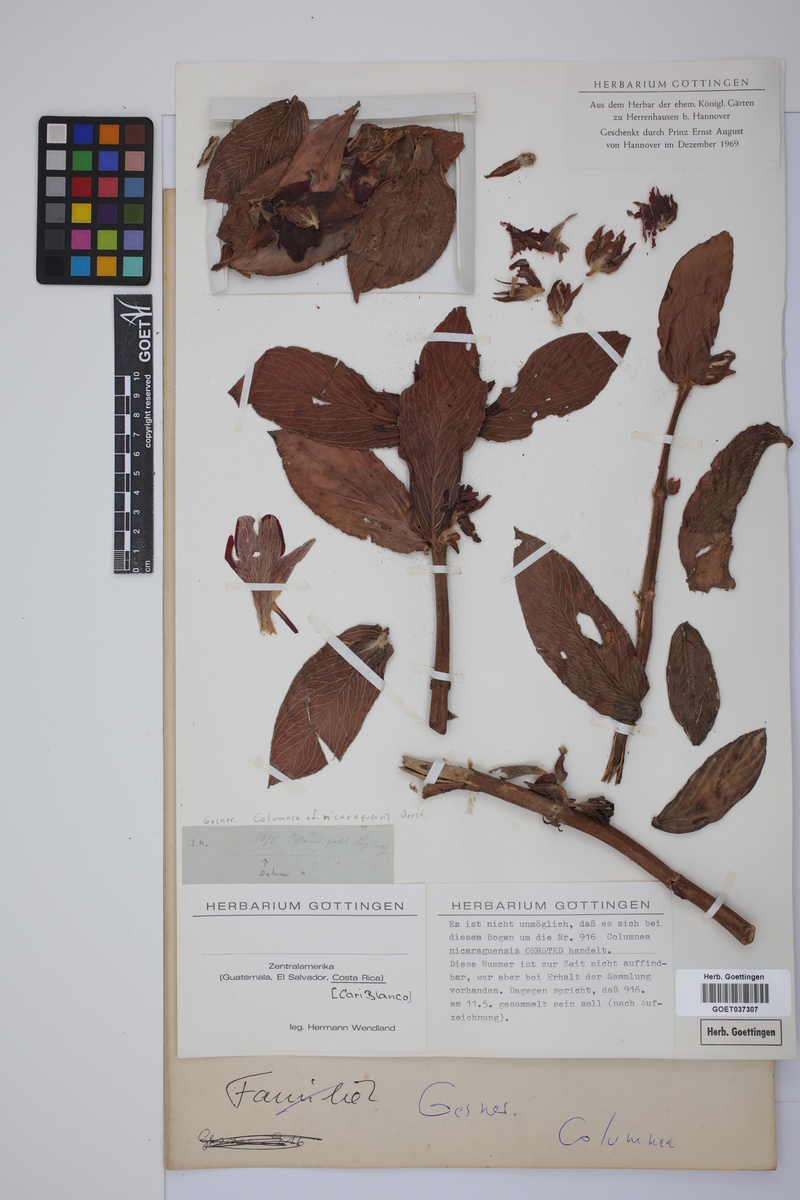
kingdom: Plantae
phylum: Tracheophyta
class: Magnoliopsida
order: Lamiales
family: Gesneriaceae
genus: Columnea
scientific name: Columnea nicaraguensis
